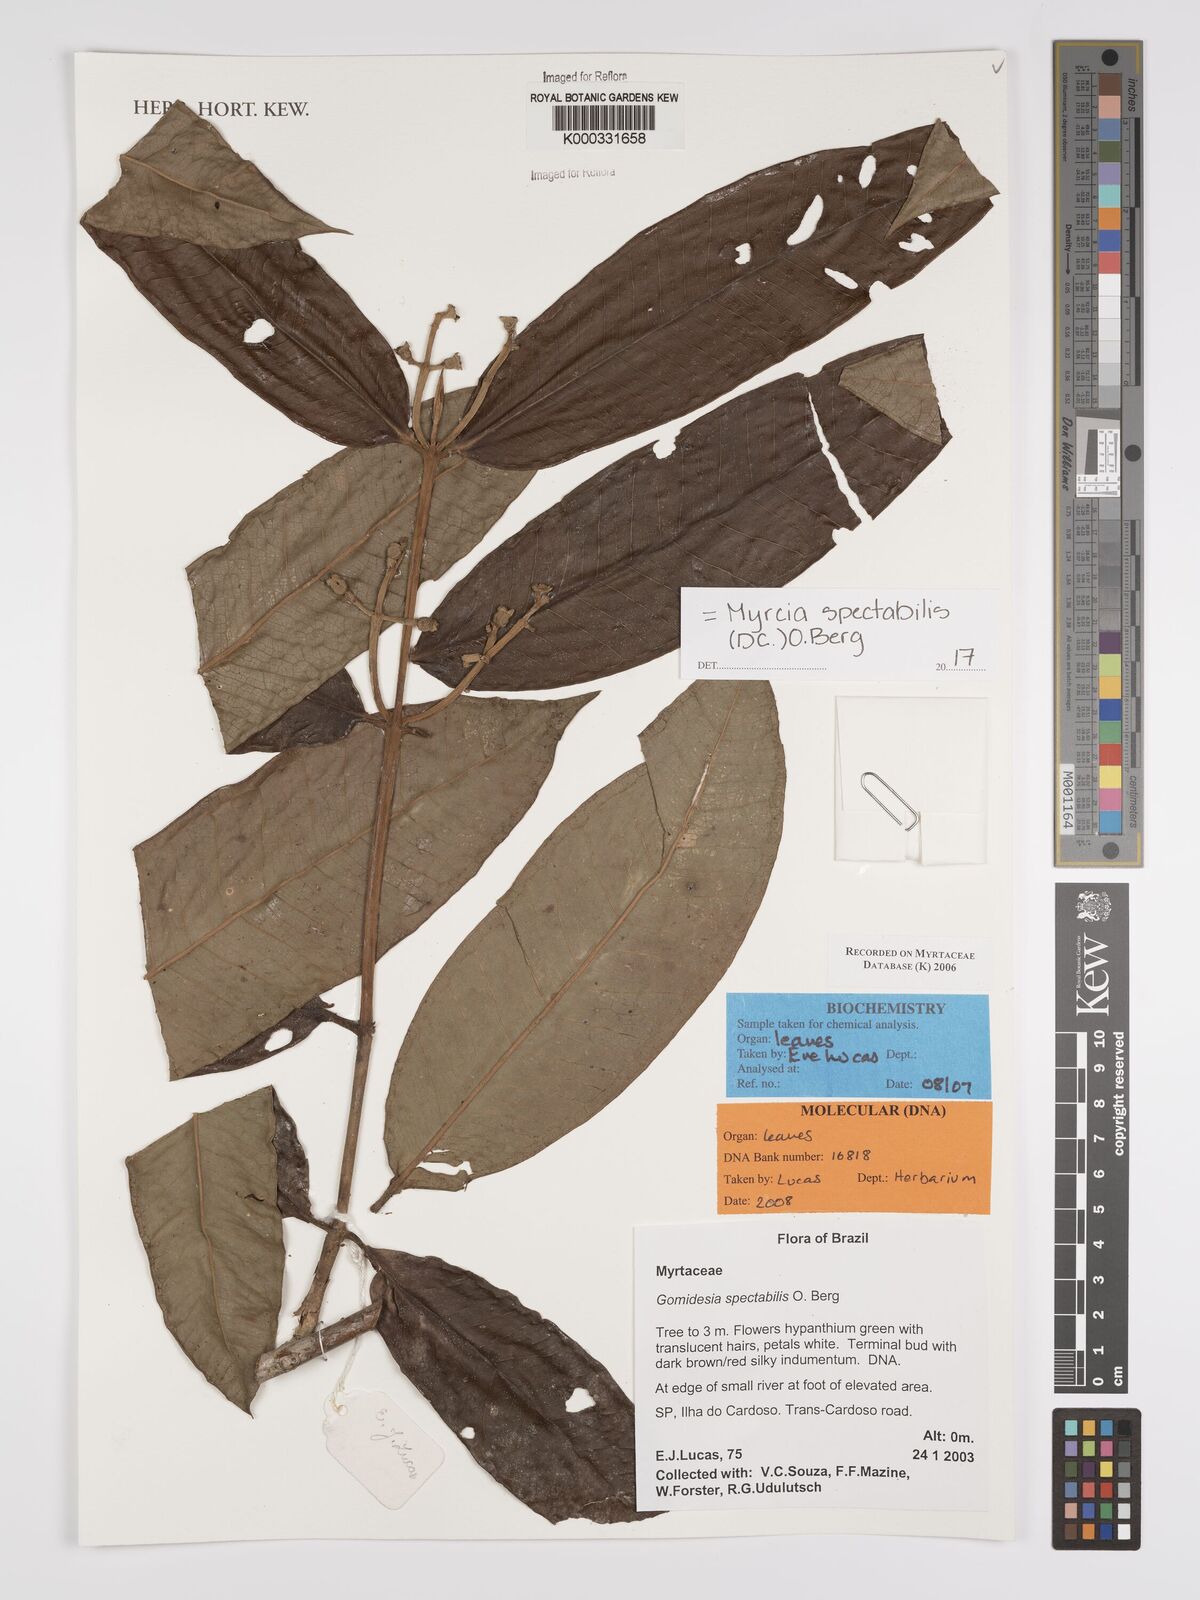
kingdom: Plantae
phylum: Tracheophyta
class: Magnoliopsida
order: Myrtales
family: Myrtaceae
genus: Myrcia
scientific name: Myrcia spectabilis
